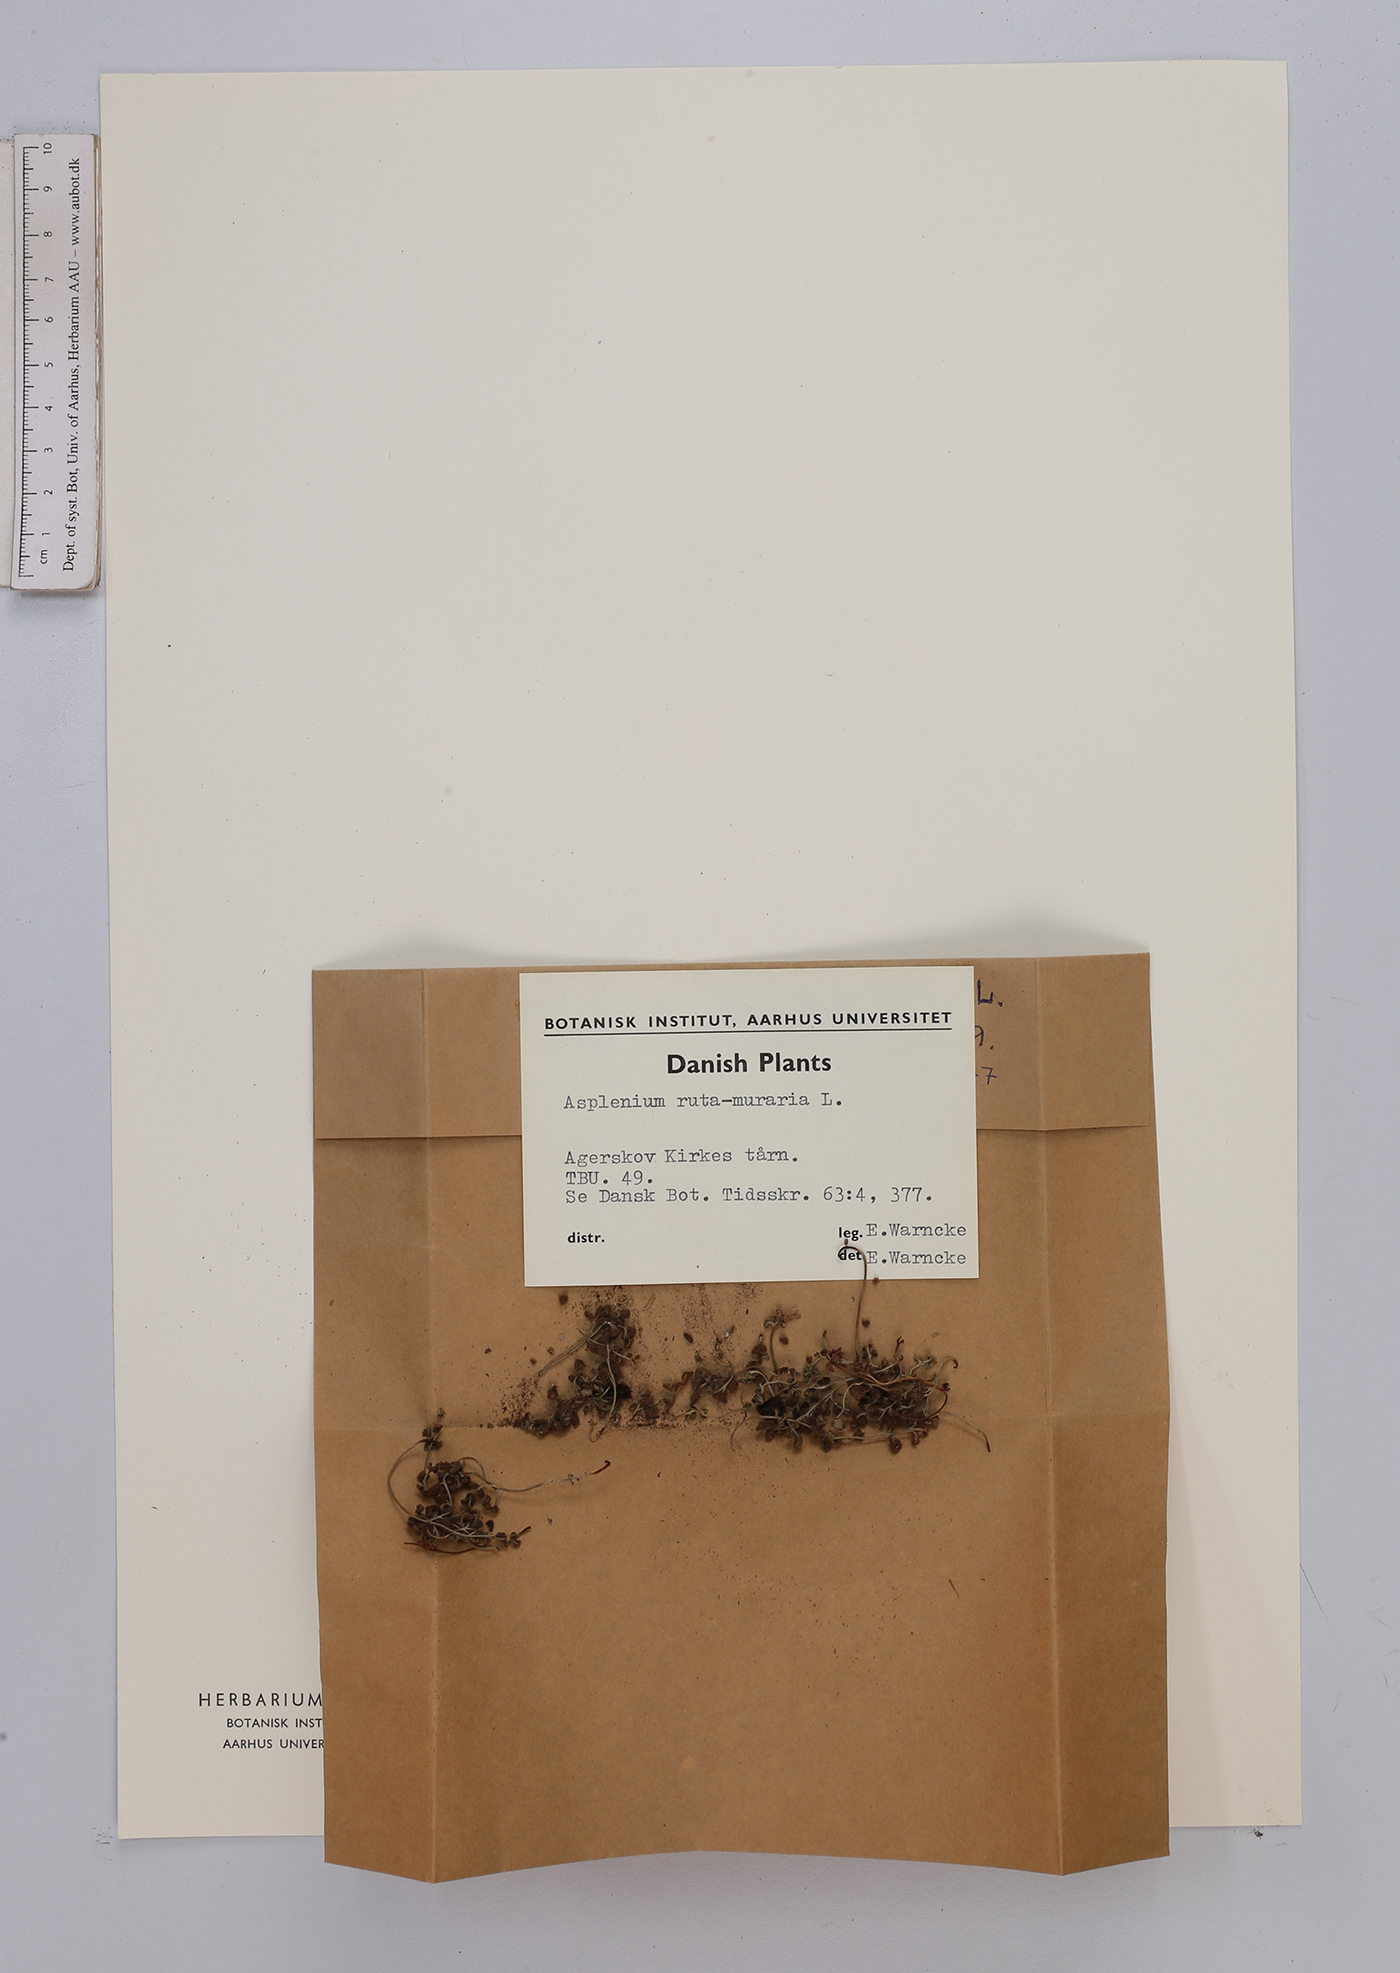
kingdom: Plantae
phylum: Tracheophyta
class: Polypodiopsida
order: Polypodiales
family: Aspleniaceae
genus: Asplenium
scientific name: Asplenium ruta-muraria
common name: Wall-rue
